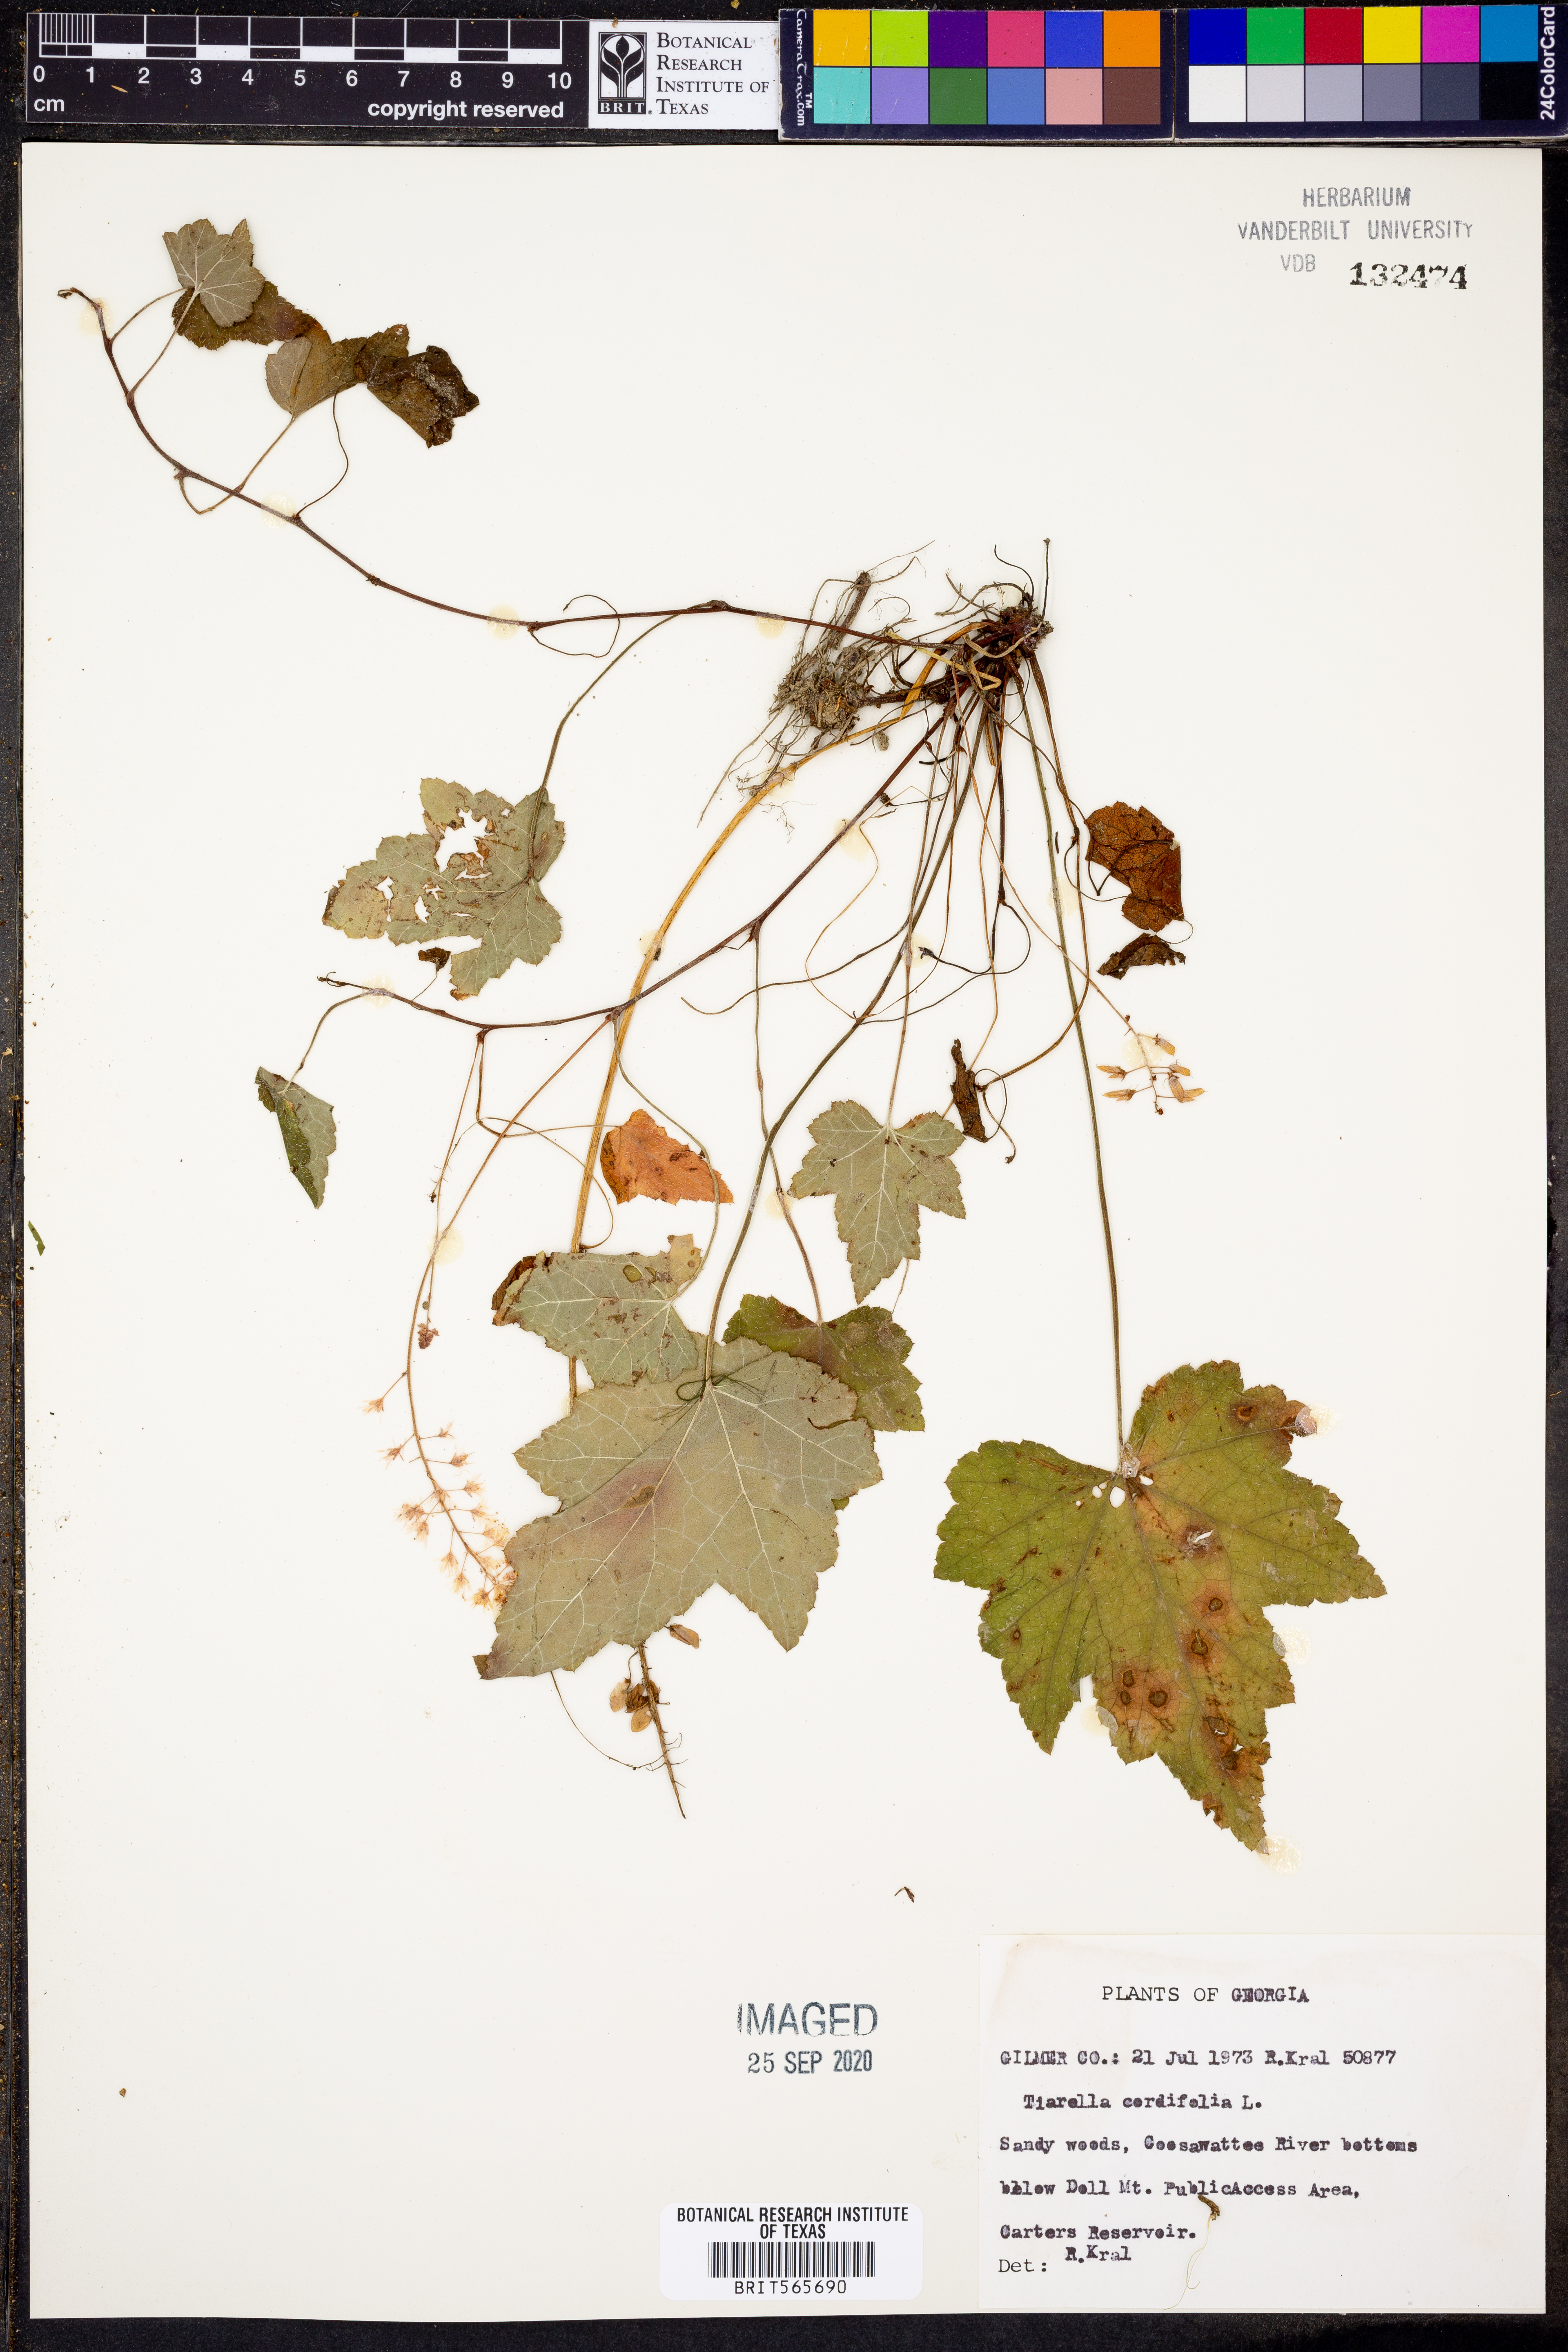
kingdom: Plantae
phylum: Tracheophyta
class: Magnoliopsida
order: Saxifragales
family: Saxifragaceae
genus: Tiarella
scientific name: Tiarella cordifolia
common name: Foamflower
